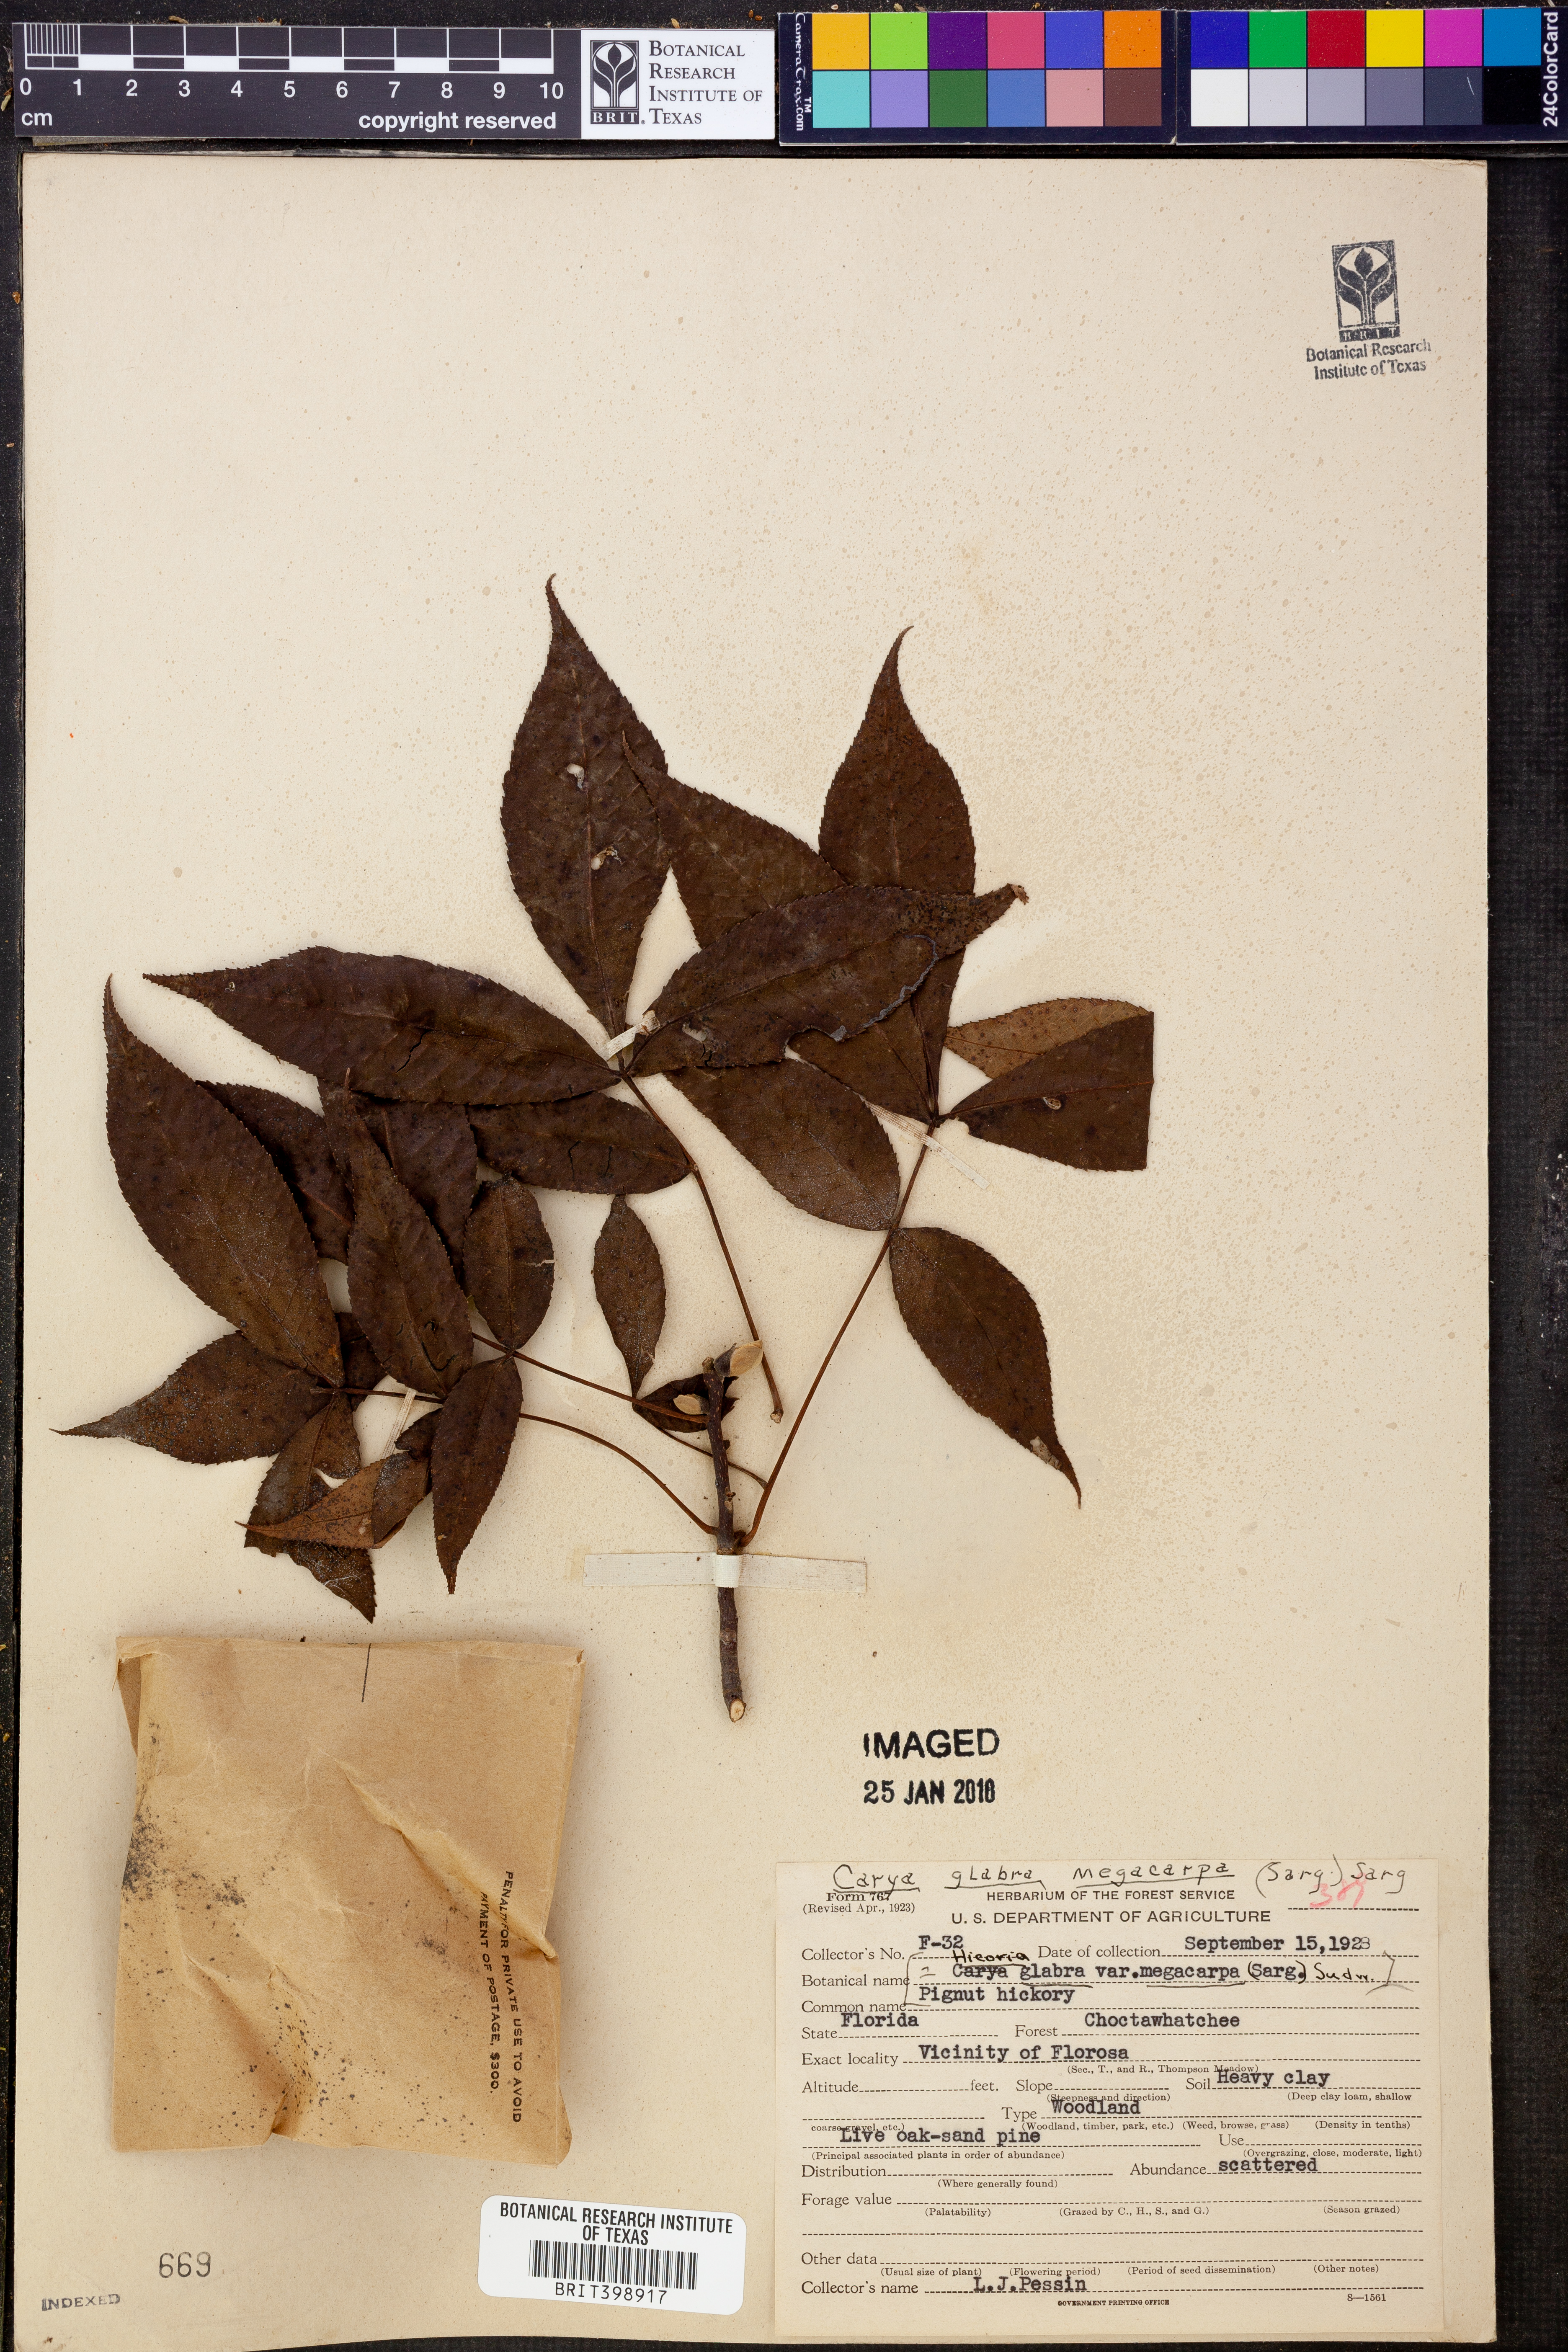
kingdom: Plantae
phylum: Tracheophyta
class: Magnoliopsida
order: Fagales
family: Juglandaceae
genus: Carya
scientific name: Carya glabra
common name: Pignut hickory
